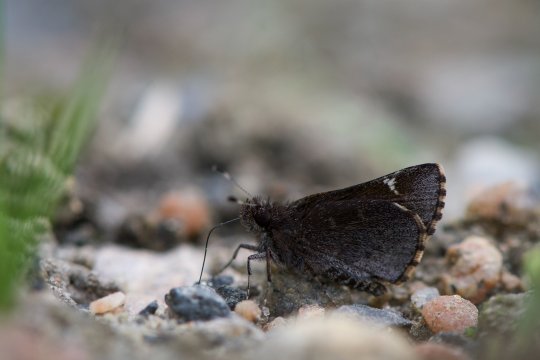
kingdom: Animalia
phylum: Arthropoda
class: Insecta
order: Lepidoptera
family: Hesperiidae
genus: Mastor
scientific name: Mastor vialis
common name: Common Roadside-Skipper
